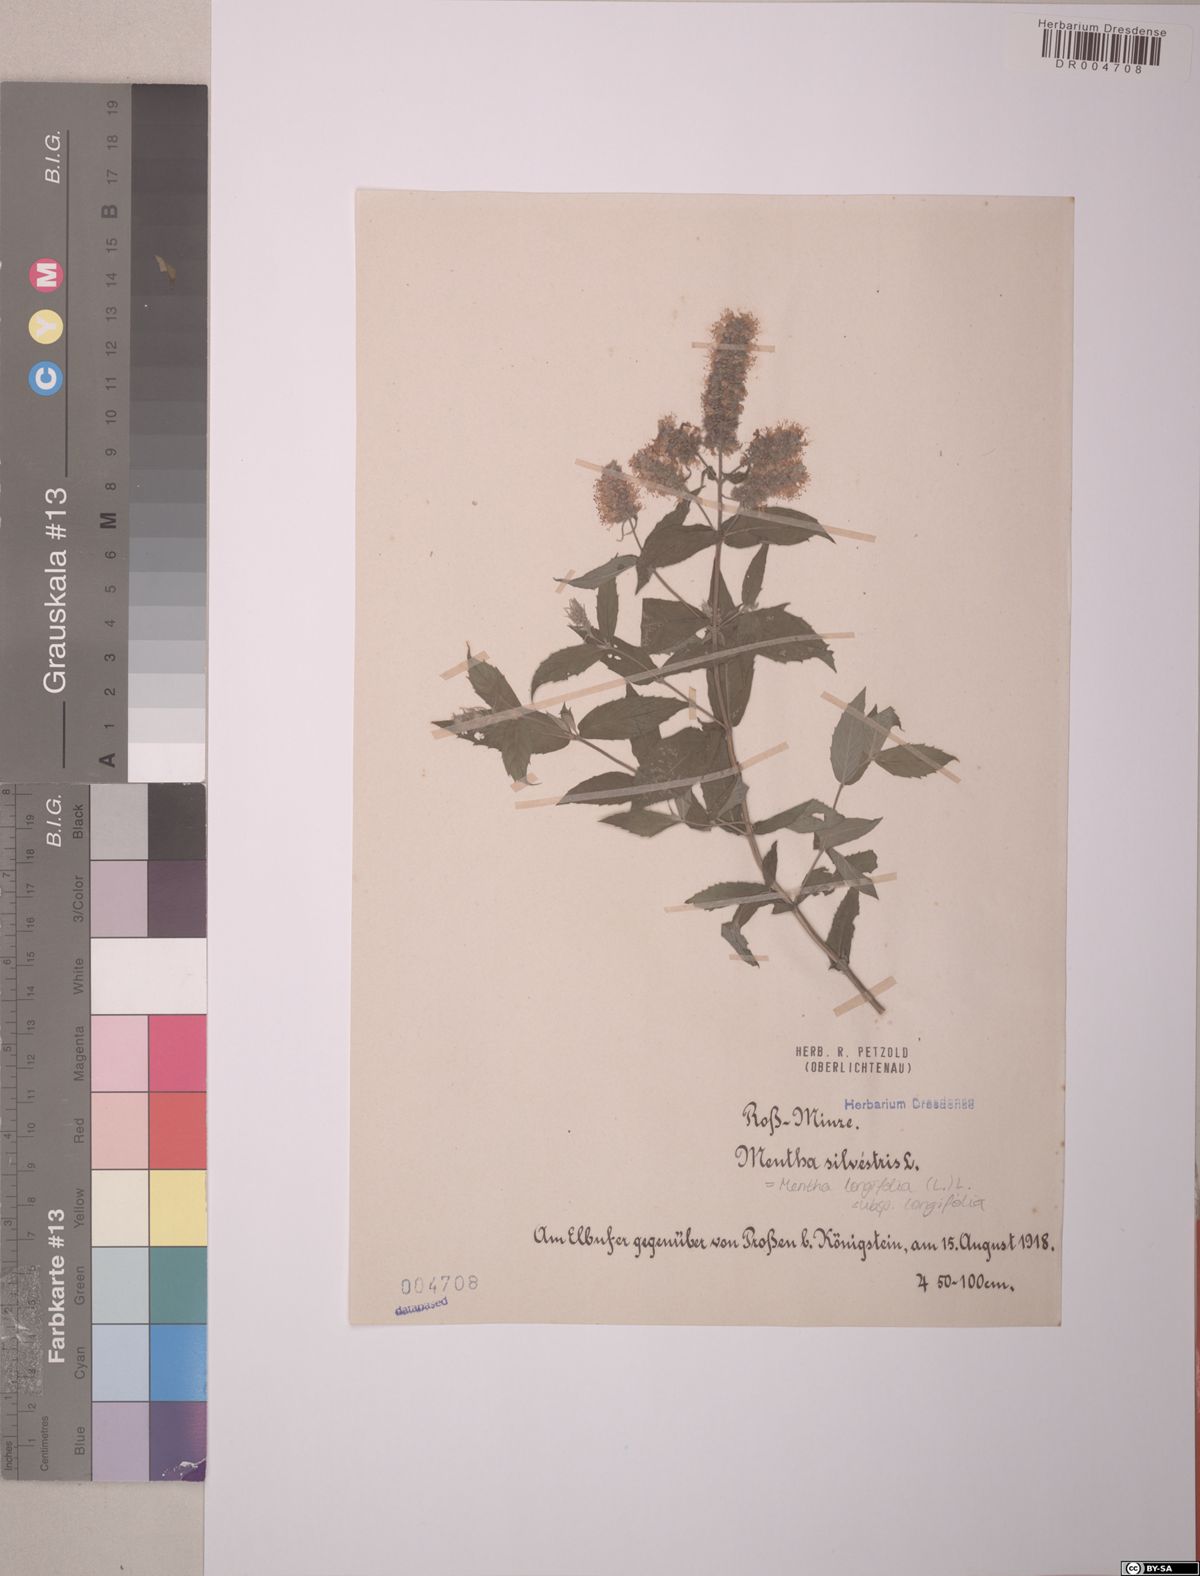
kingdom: Plantae
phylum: Tracheophyta
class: Magnoliopsida
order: Lamiales
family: Lamiaceae
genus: Mentha
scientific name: Mentha longifolia
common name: Horse mint
